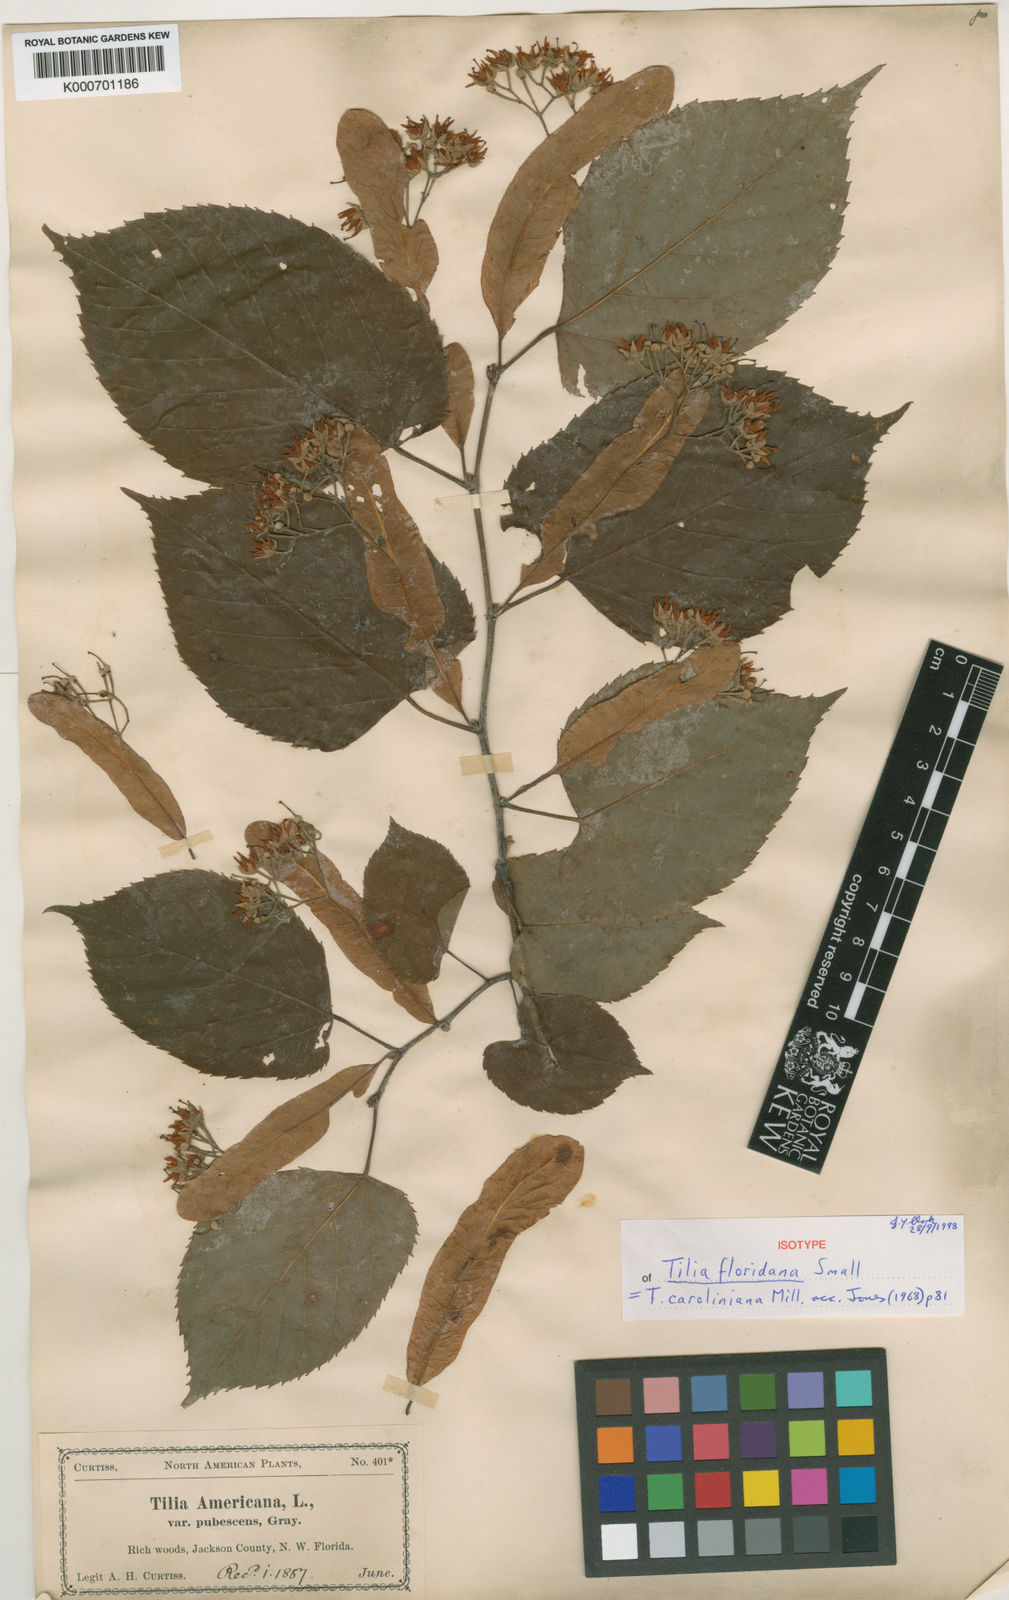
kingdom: Plantae
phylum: Tracheophyta
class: Magnoliopsida
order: Malvales
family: Malvaceae
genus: Tilia
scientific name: Tilia americana
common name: Basswood
